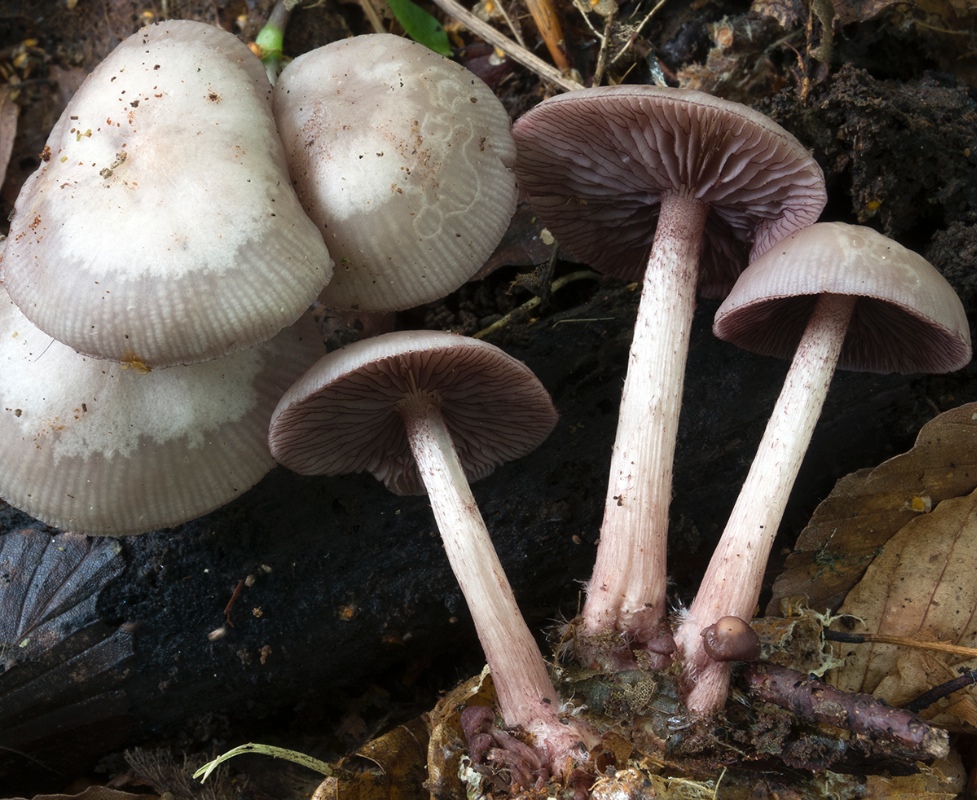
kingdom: Fungi
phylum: Basidiomycota
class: Agaricomycetes
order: Agaricales
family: Mycenaceae
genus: Mycena
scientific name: Mycena pelianthina
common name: mørkbladet huesvamp
